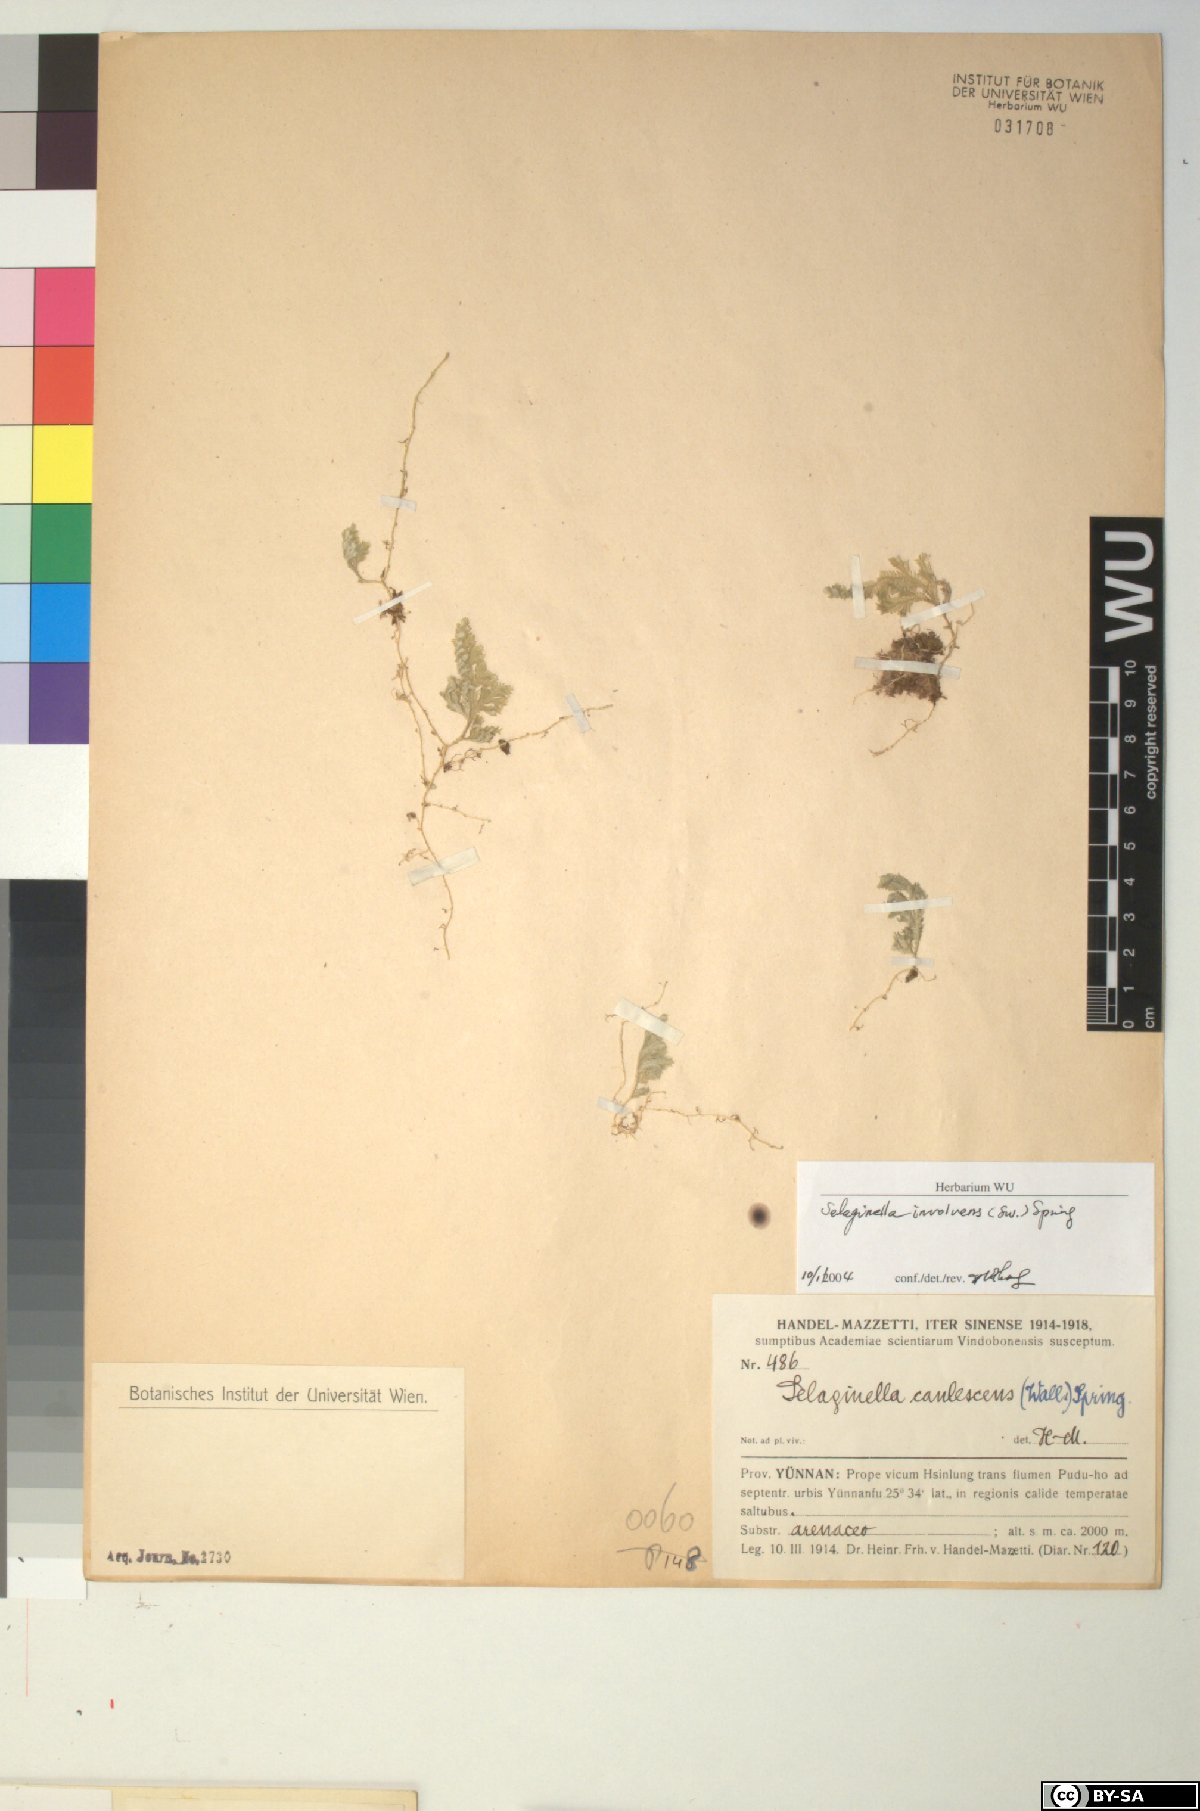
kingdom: Plantae
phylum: Tracheophyta
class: Lycopodiopsida
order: Selaginellales
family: Selaginellaceae
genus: Selaginella
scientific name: Selaginella involvens
